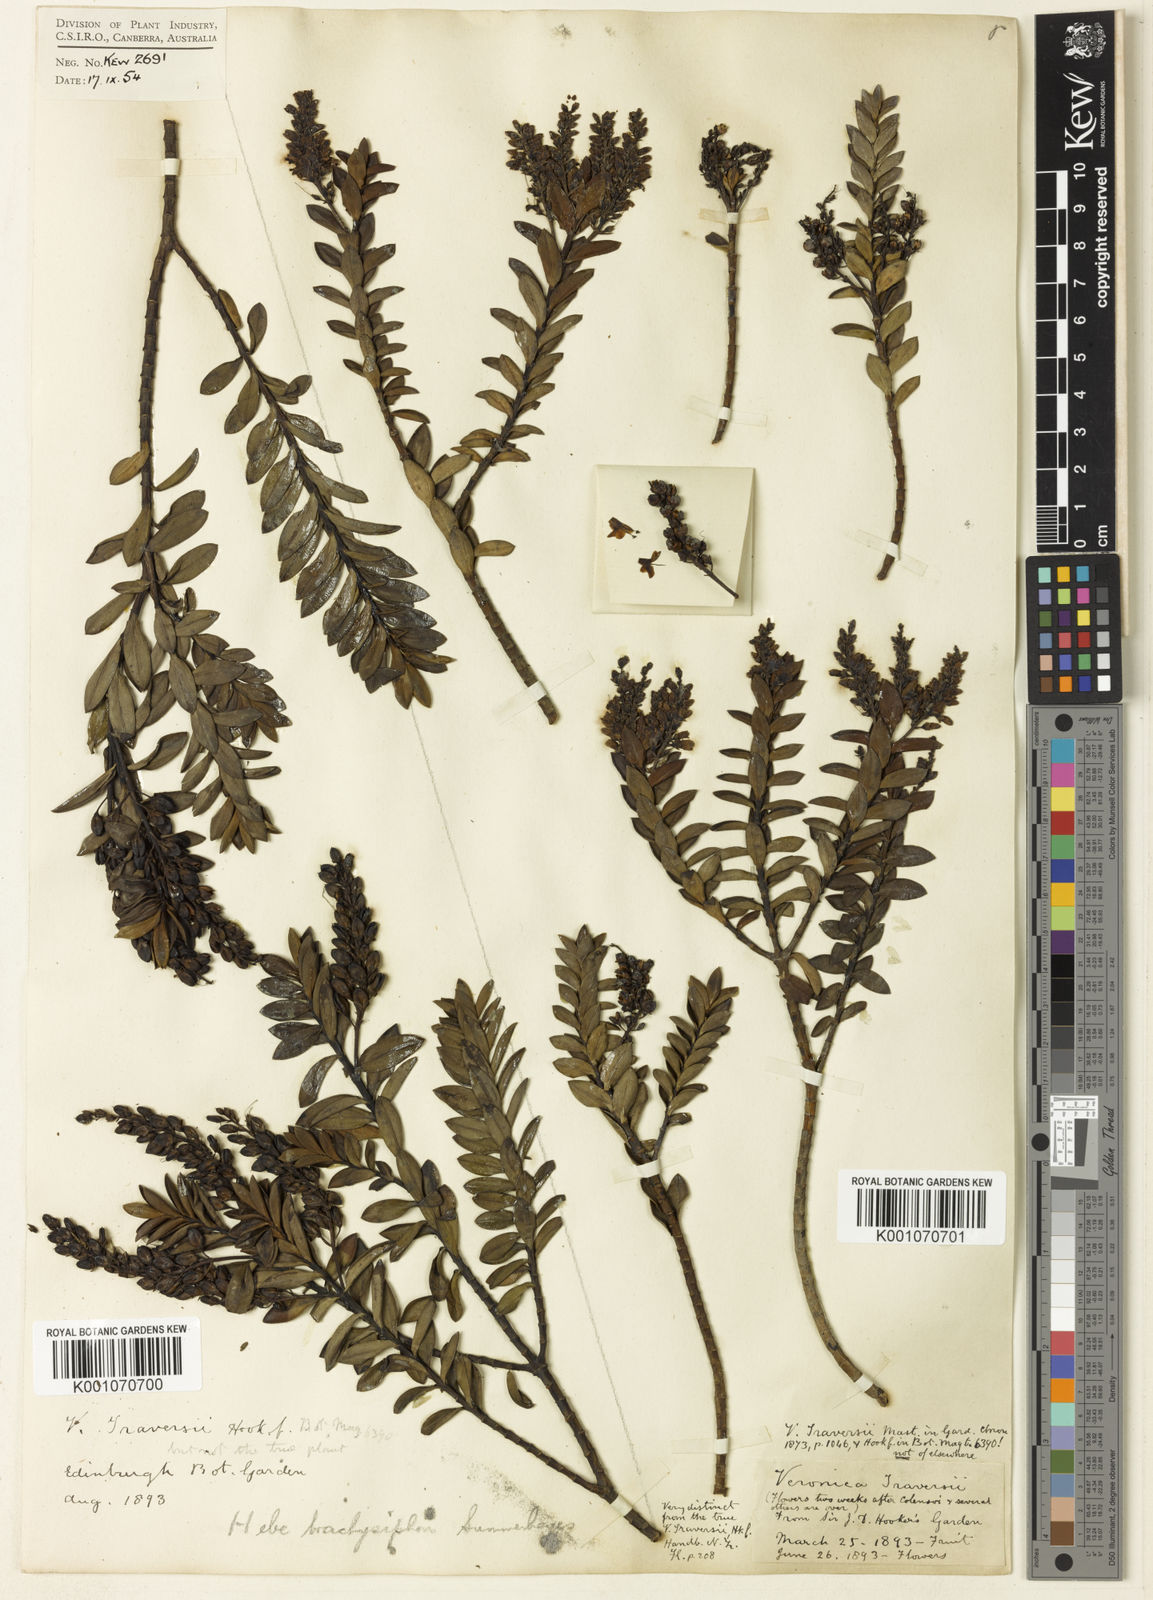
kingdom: Plantae
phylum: Tracheophyta
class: Magnoliopsida
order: Lamiales
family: Plantaginaceae
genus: Veronica
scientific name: Veronica brachysiphon
